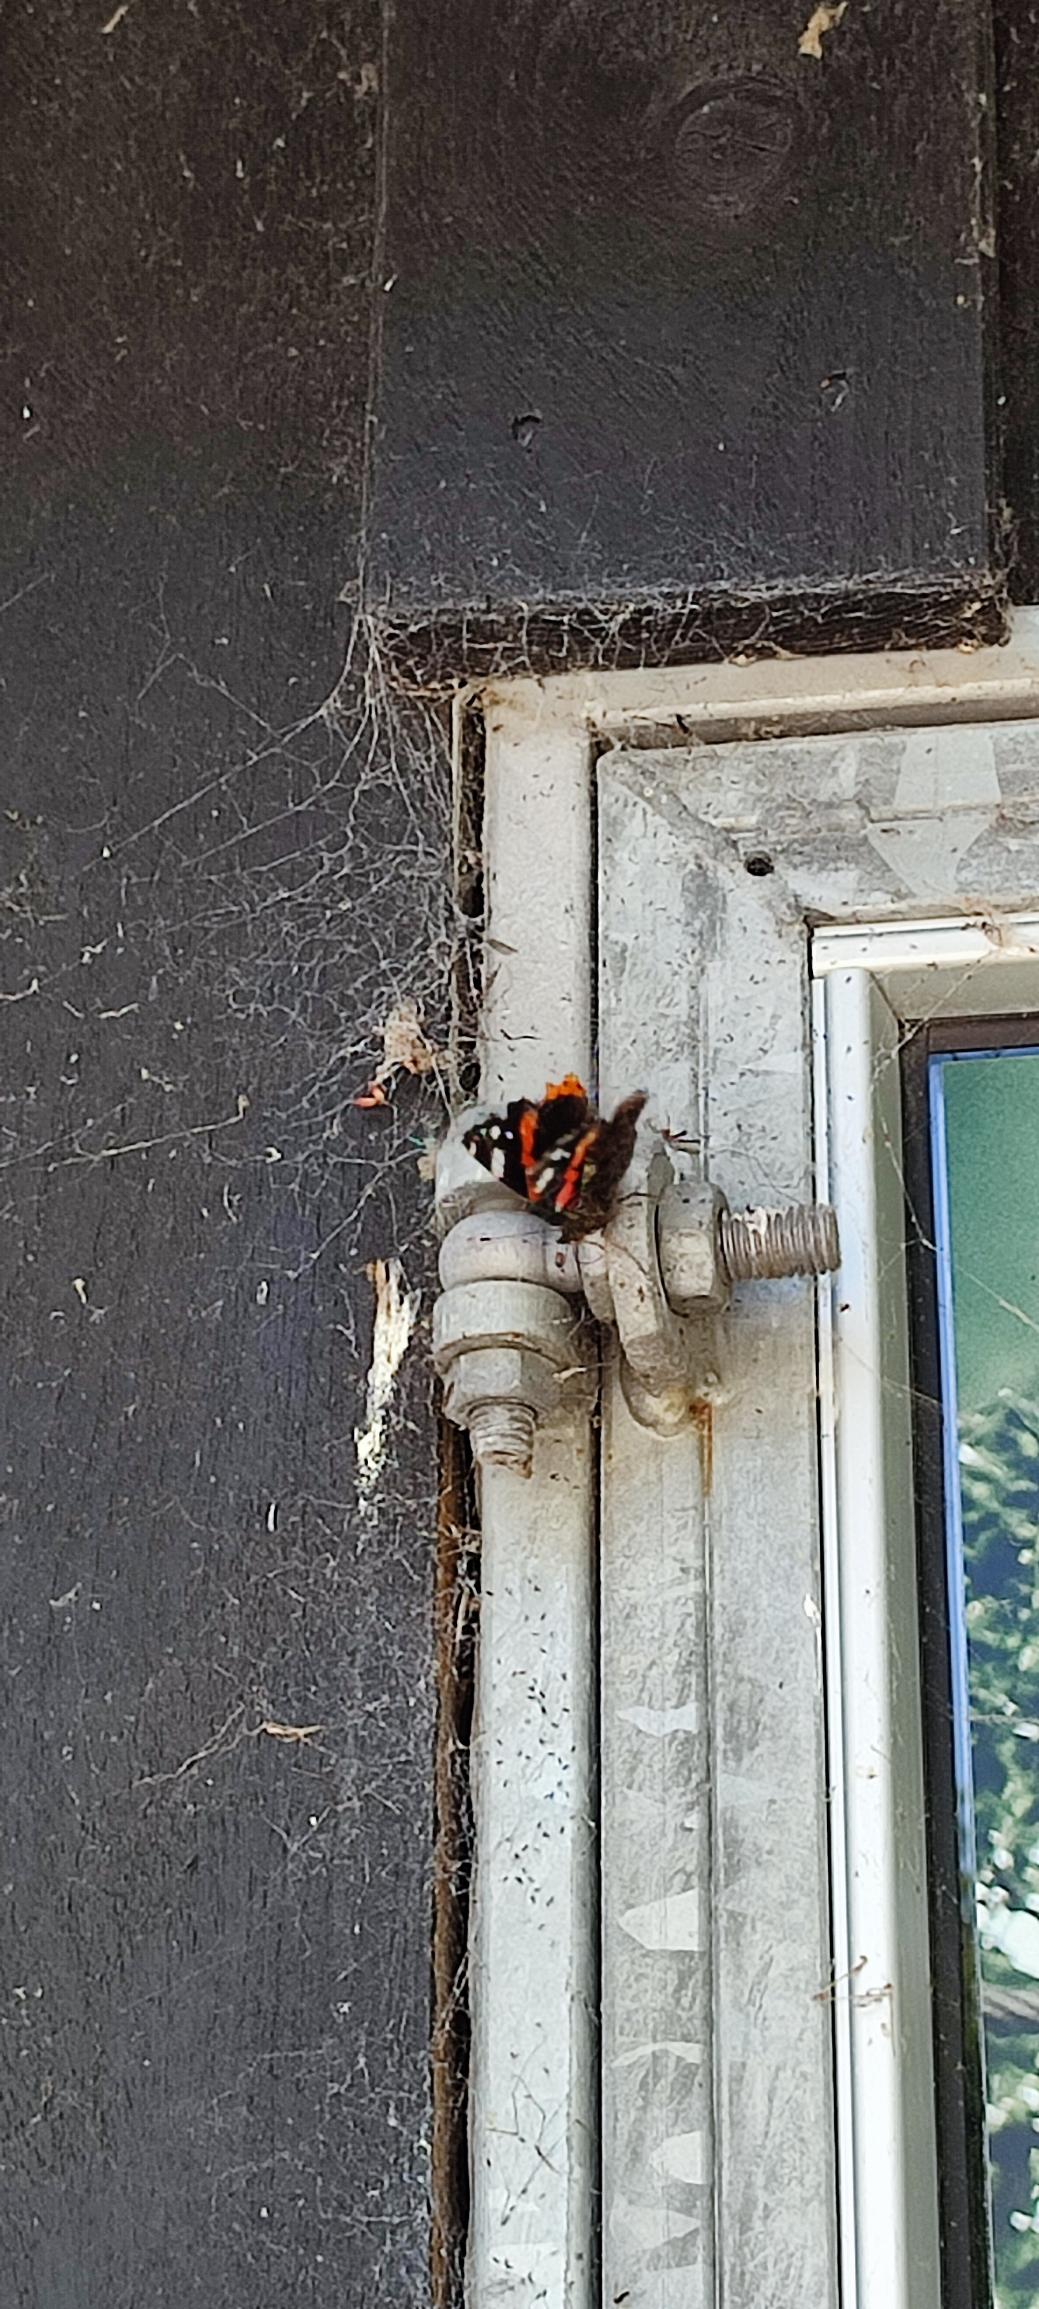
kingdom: Animalia
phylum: Arthropoda
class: Insecta
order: Lepidoptera
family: Nymphalidae
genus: Vanessa
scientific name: Vanessa atalanta
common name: Admiral
